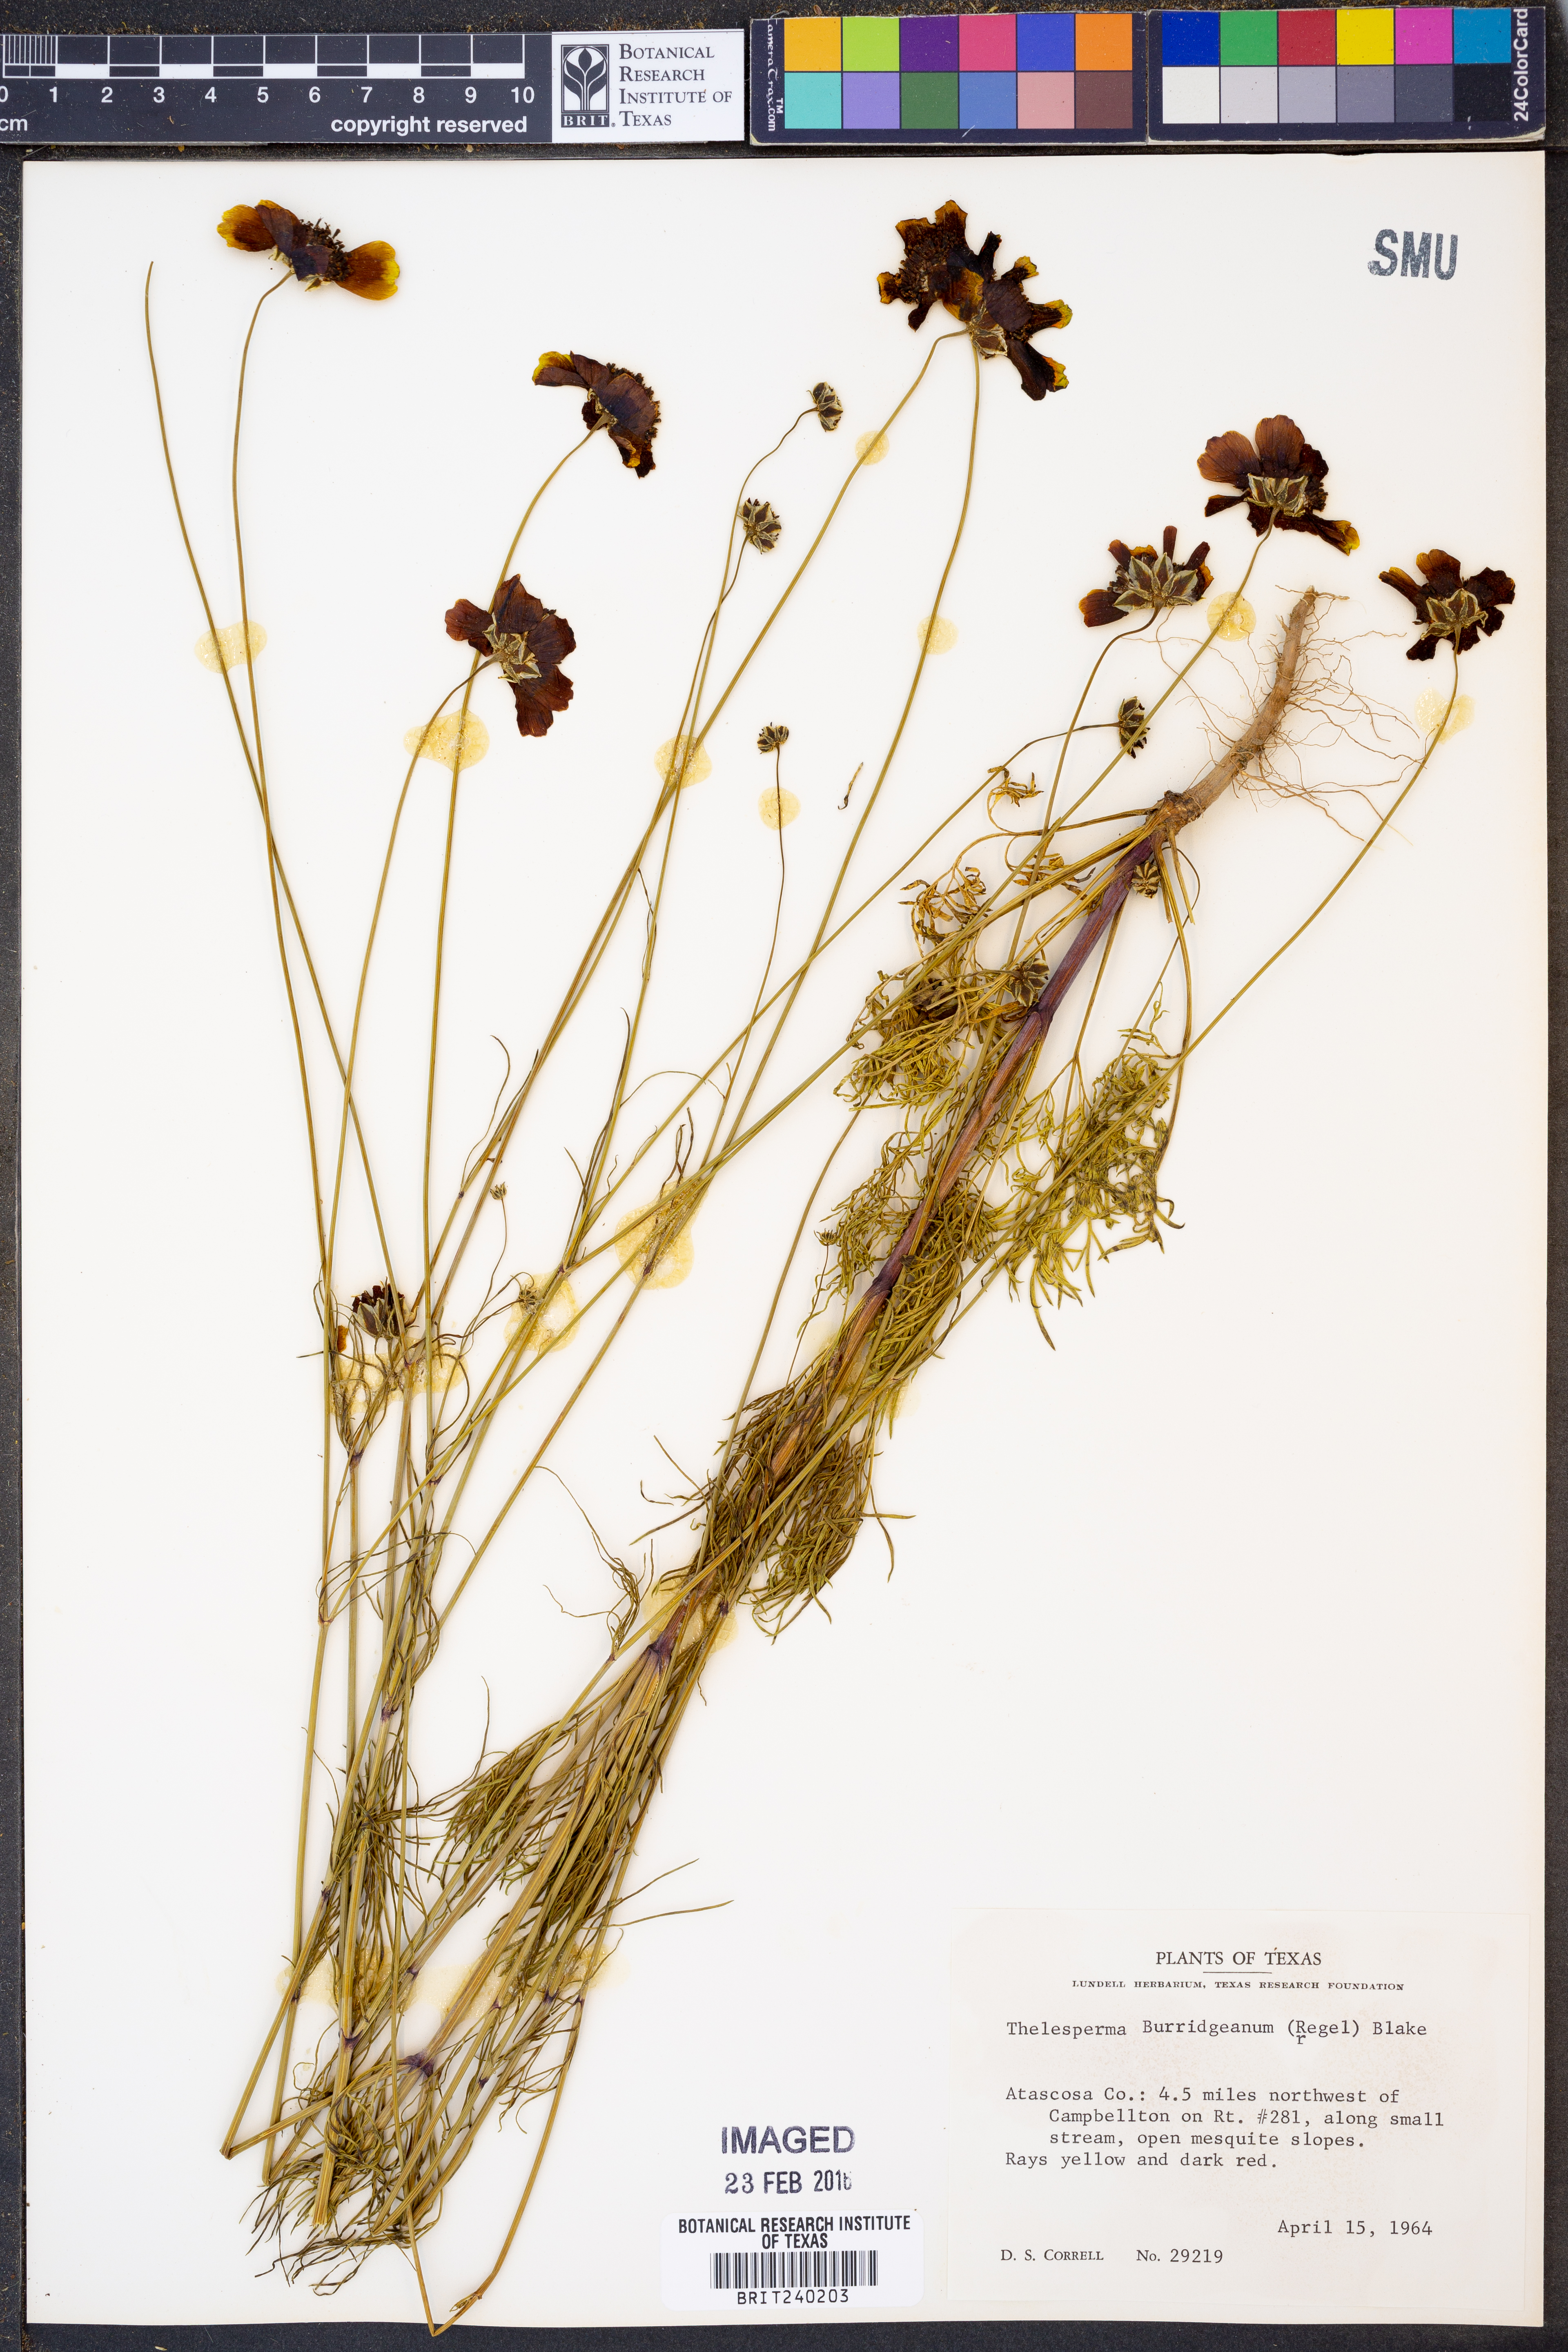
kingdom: Plantae
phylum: Tracheophyta
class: Magnoliopsida
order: Asterales
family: Asteraceae
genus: Thelesperma
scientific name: Thelesperma burridgeanum
